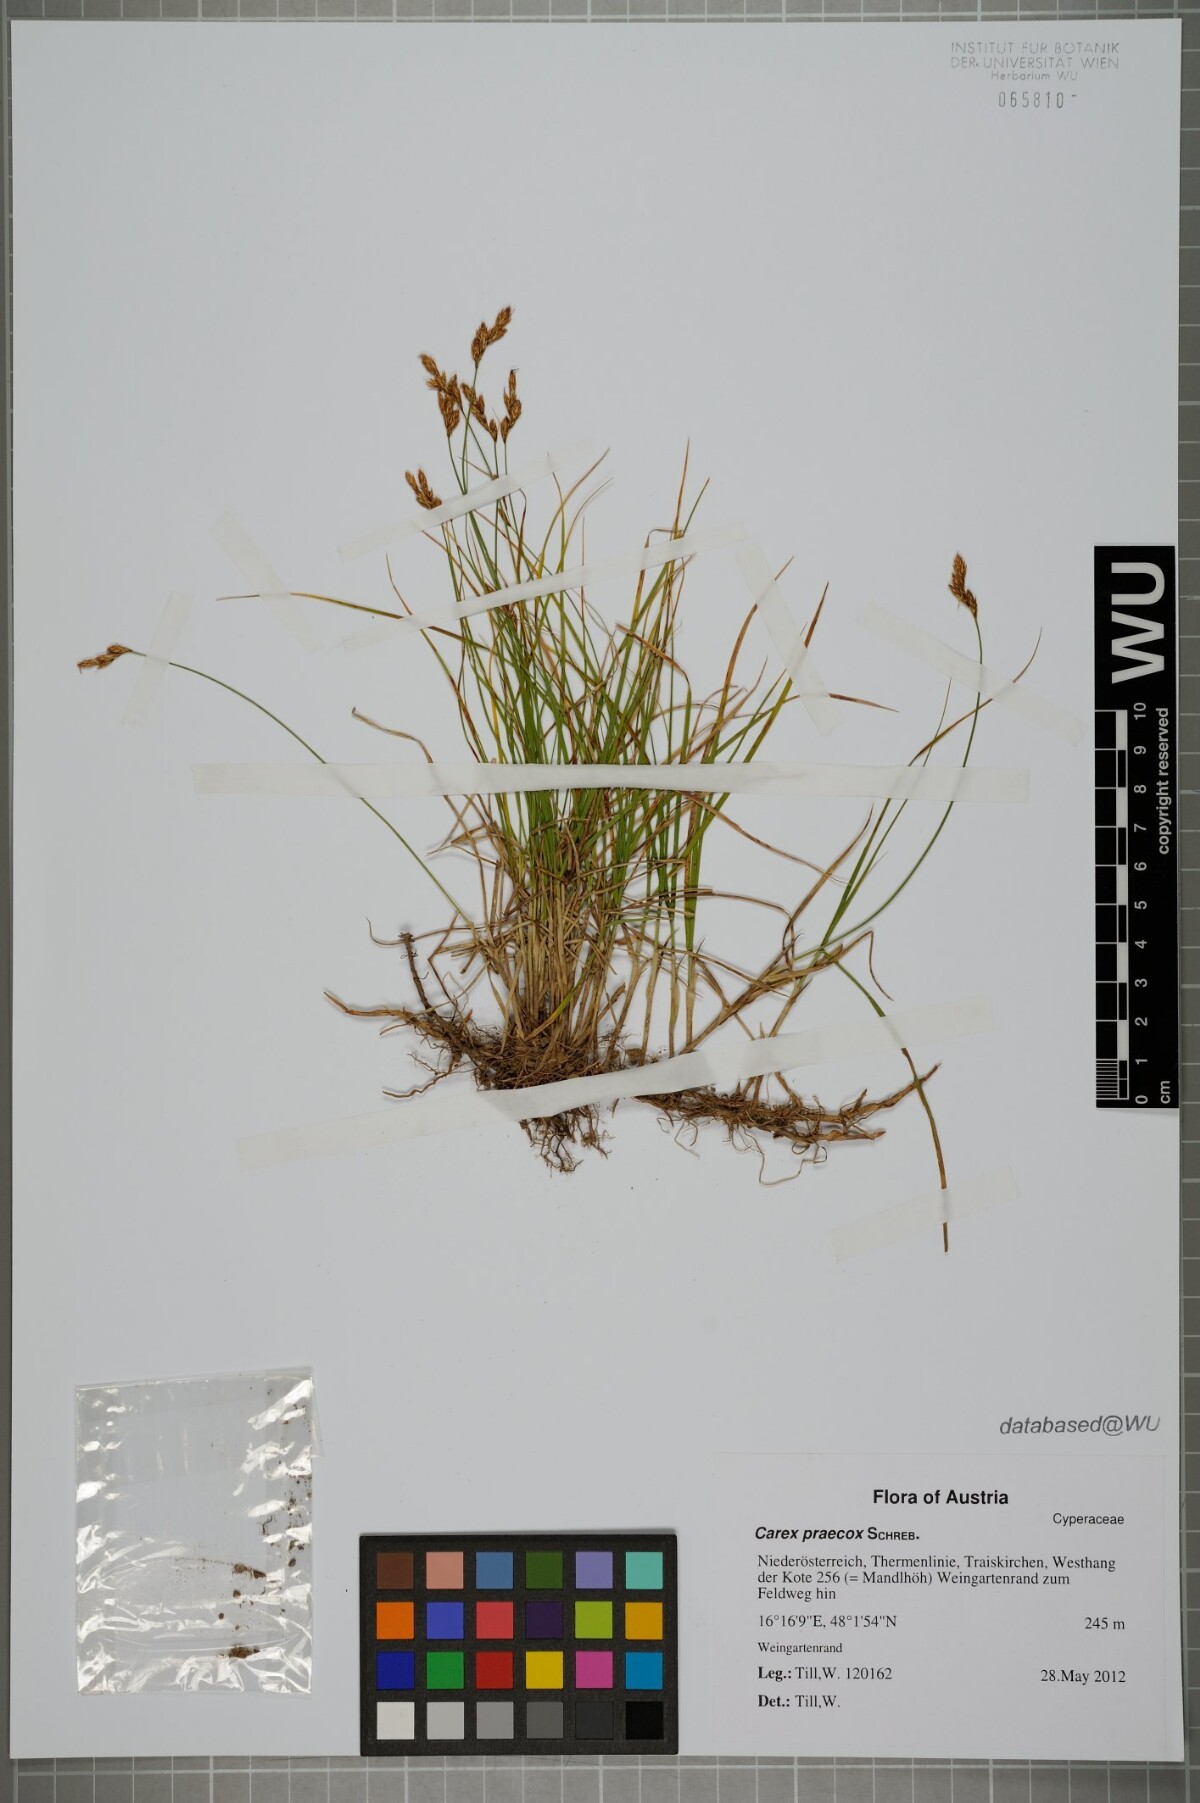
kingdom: Plantae
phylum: Tracheophyta
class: Liliopsida
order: Poales
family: Cyperaceae
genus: Carex
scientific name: Carex praecox
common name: Early sedge
